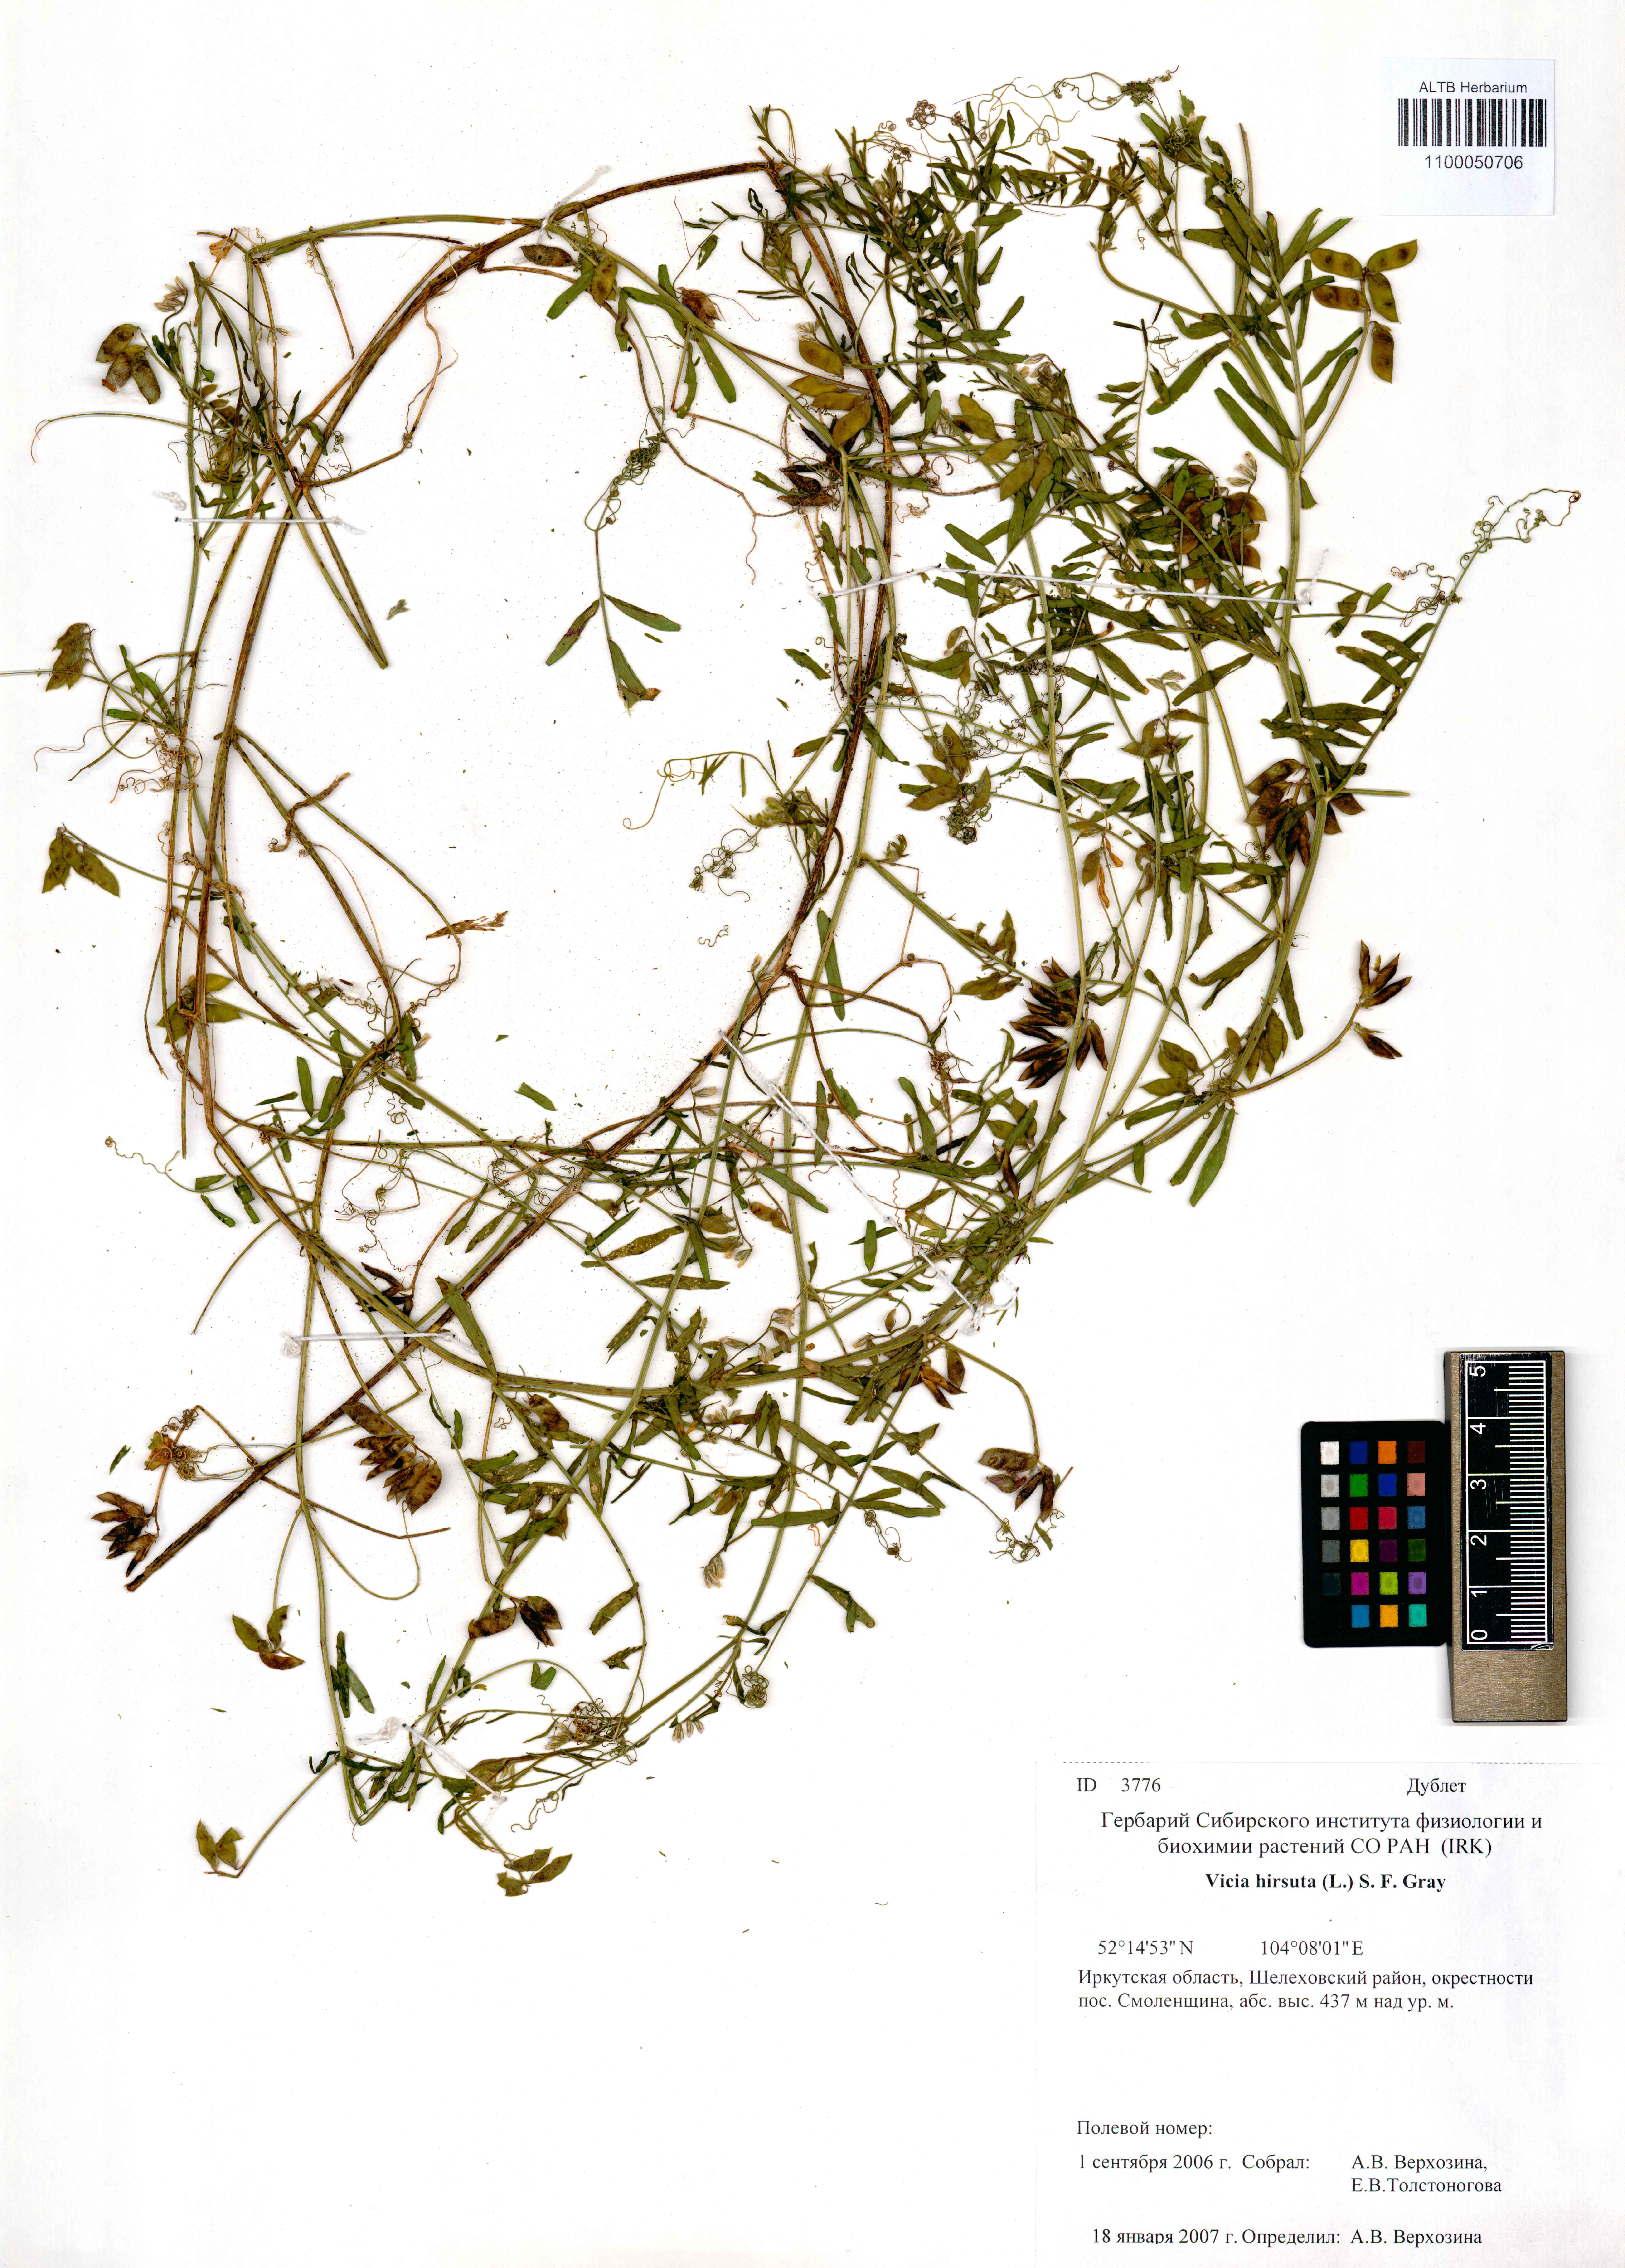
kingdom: Plantae
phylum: Tracheophyta
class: Magnoliopsida
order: Fabales
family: Fabaceae
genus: Vicia
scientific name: Vicia hirsuta
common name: Tiny vetch
